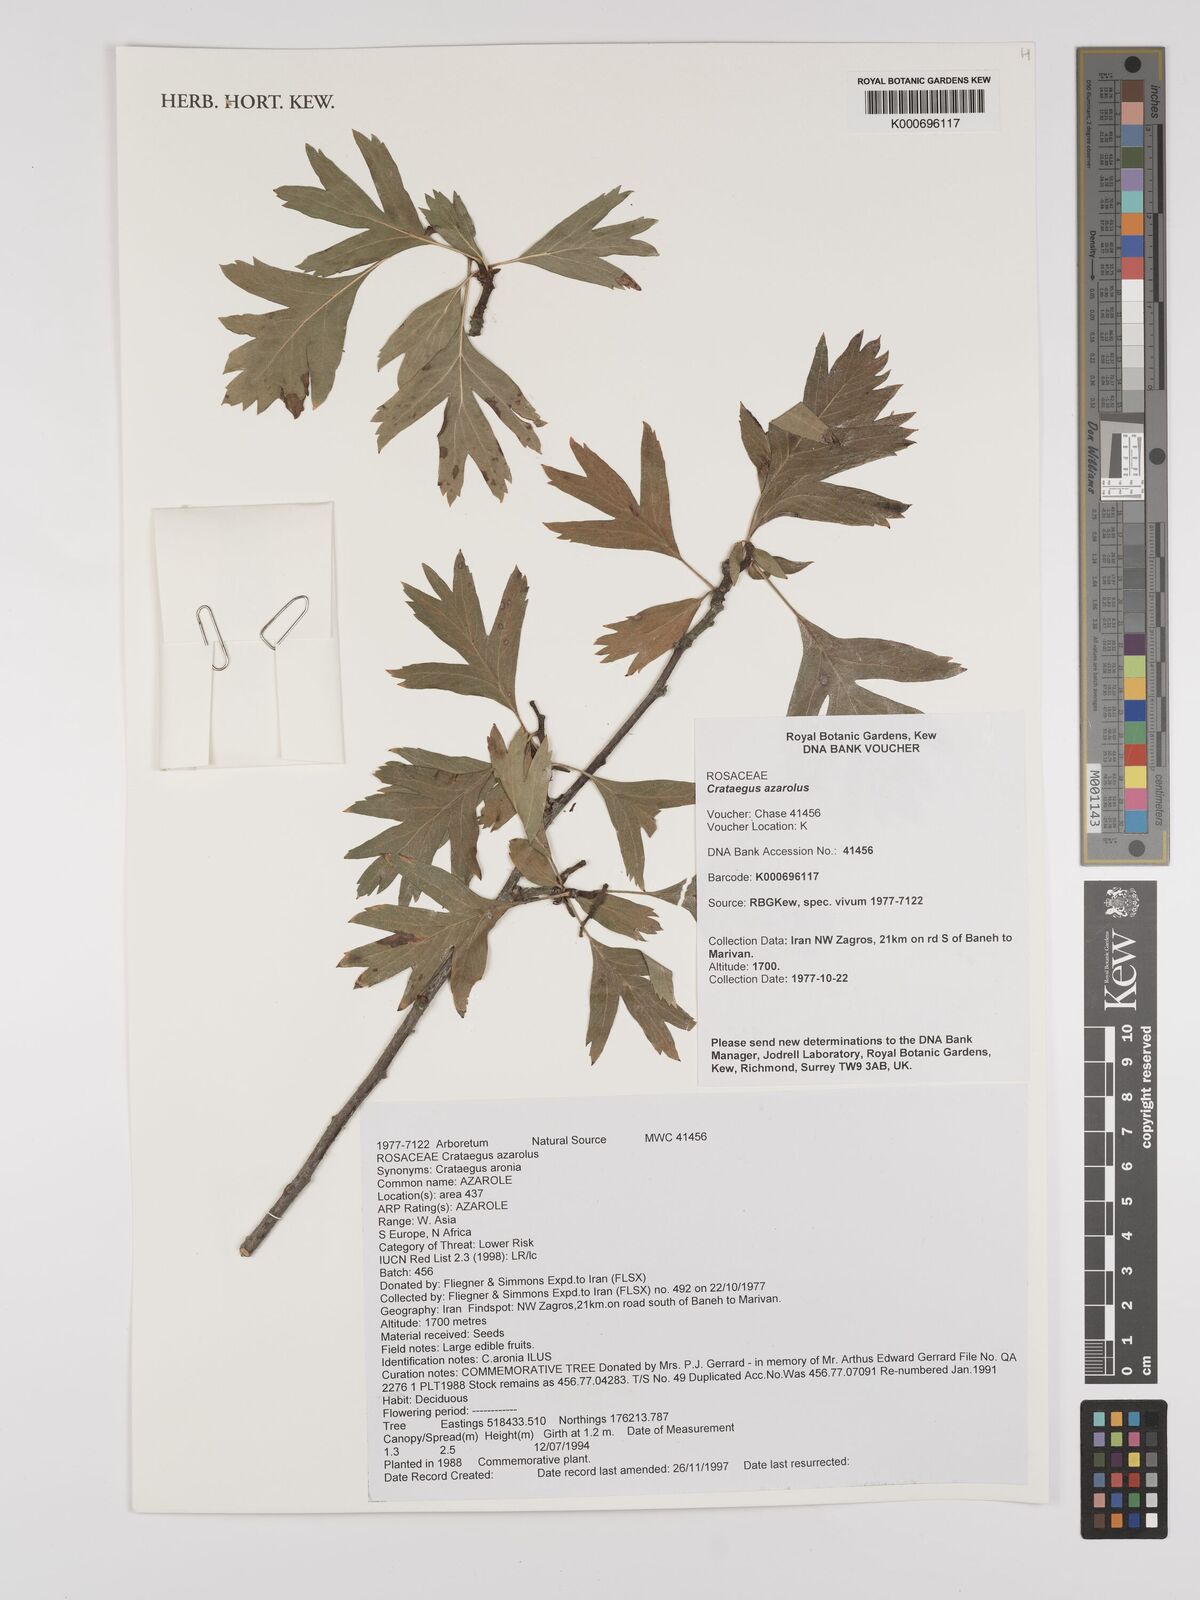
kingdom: Plantae
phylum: Tracheophyta
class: Magnoliopsida
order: Rosales
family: Rosaceae
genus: Crataegus
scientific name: Crataegus azarolus
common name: Azarole
